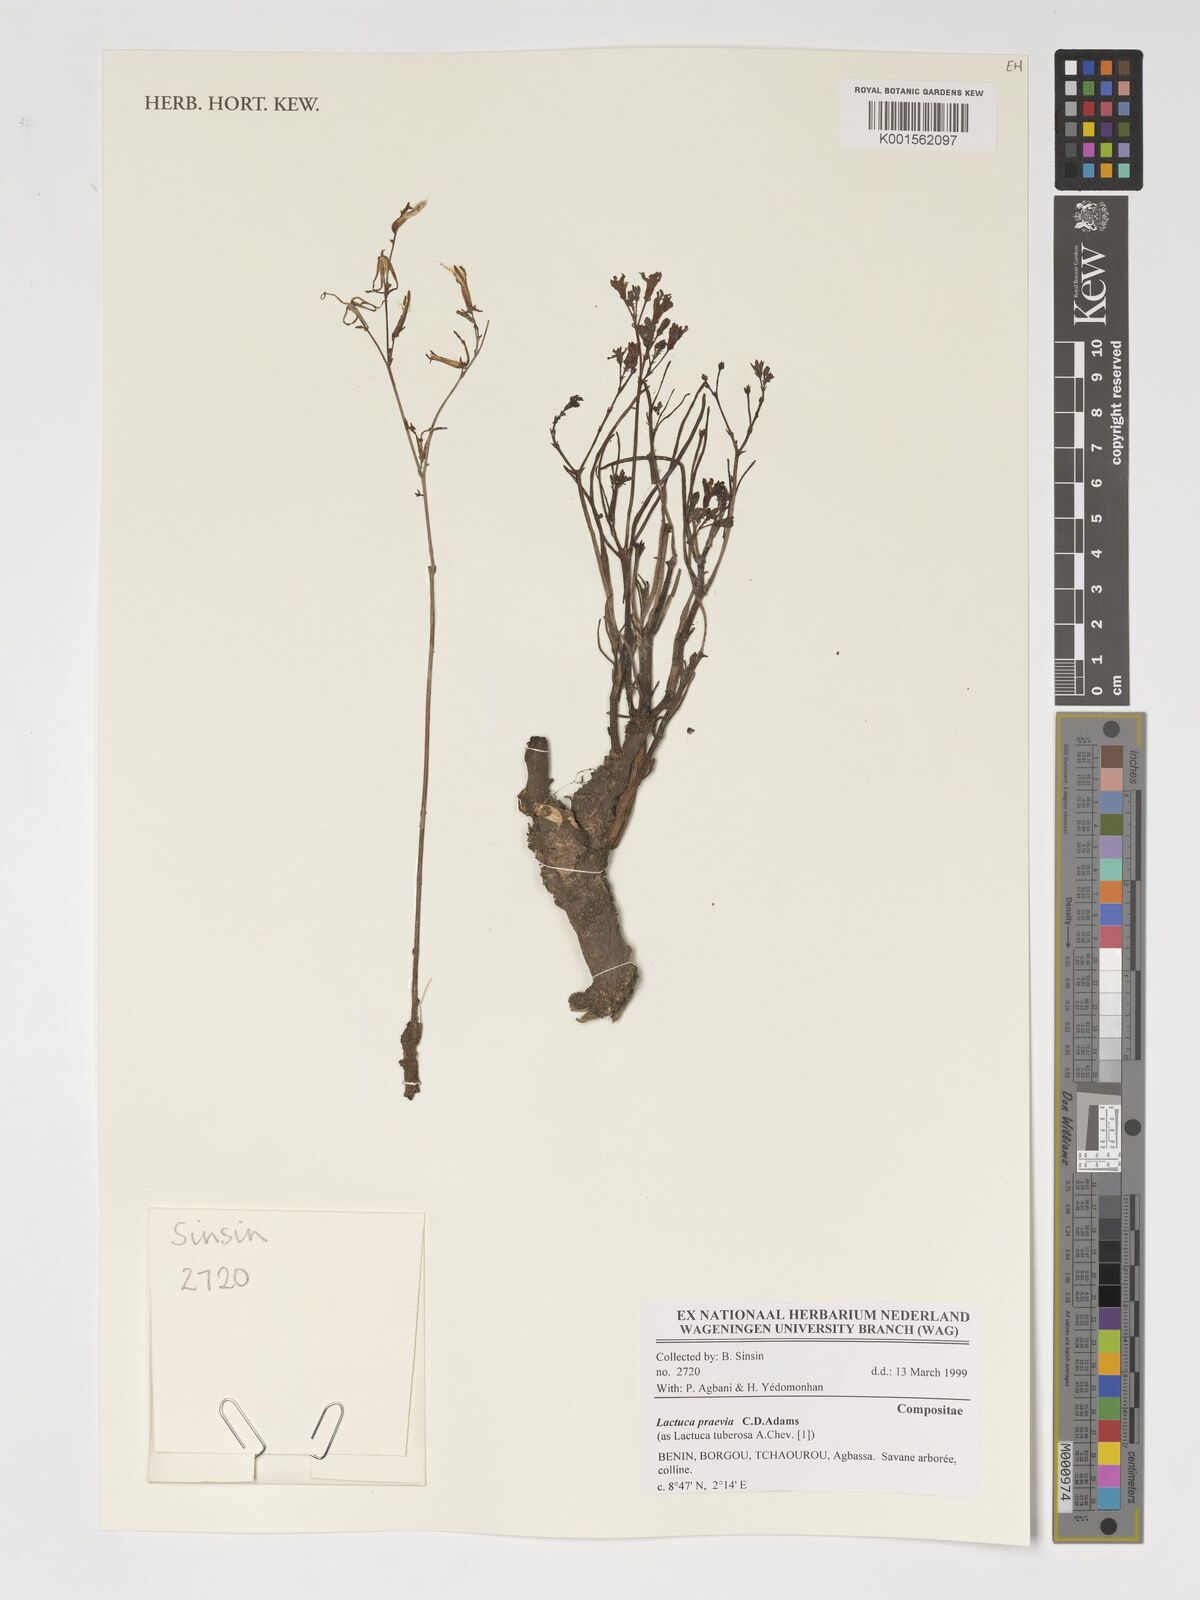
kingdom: Plantae
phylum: Tracheophyta
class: Magnoliopsida
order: Asterales
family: Asteraceae
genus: Lactuca
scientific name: Lactuca praevia
